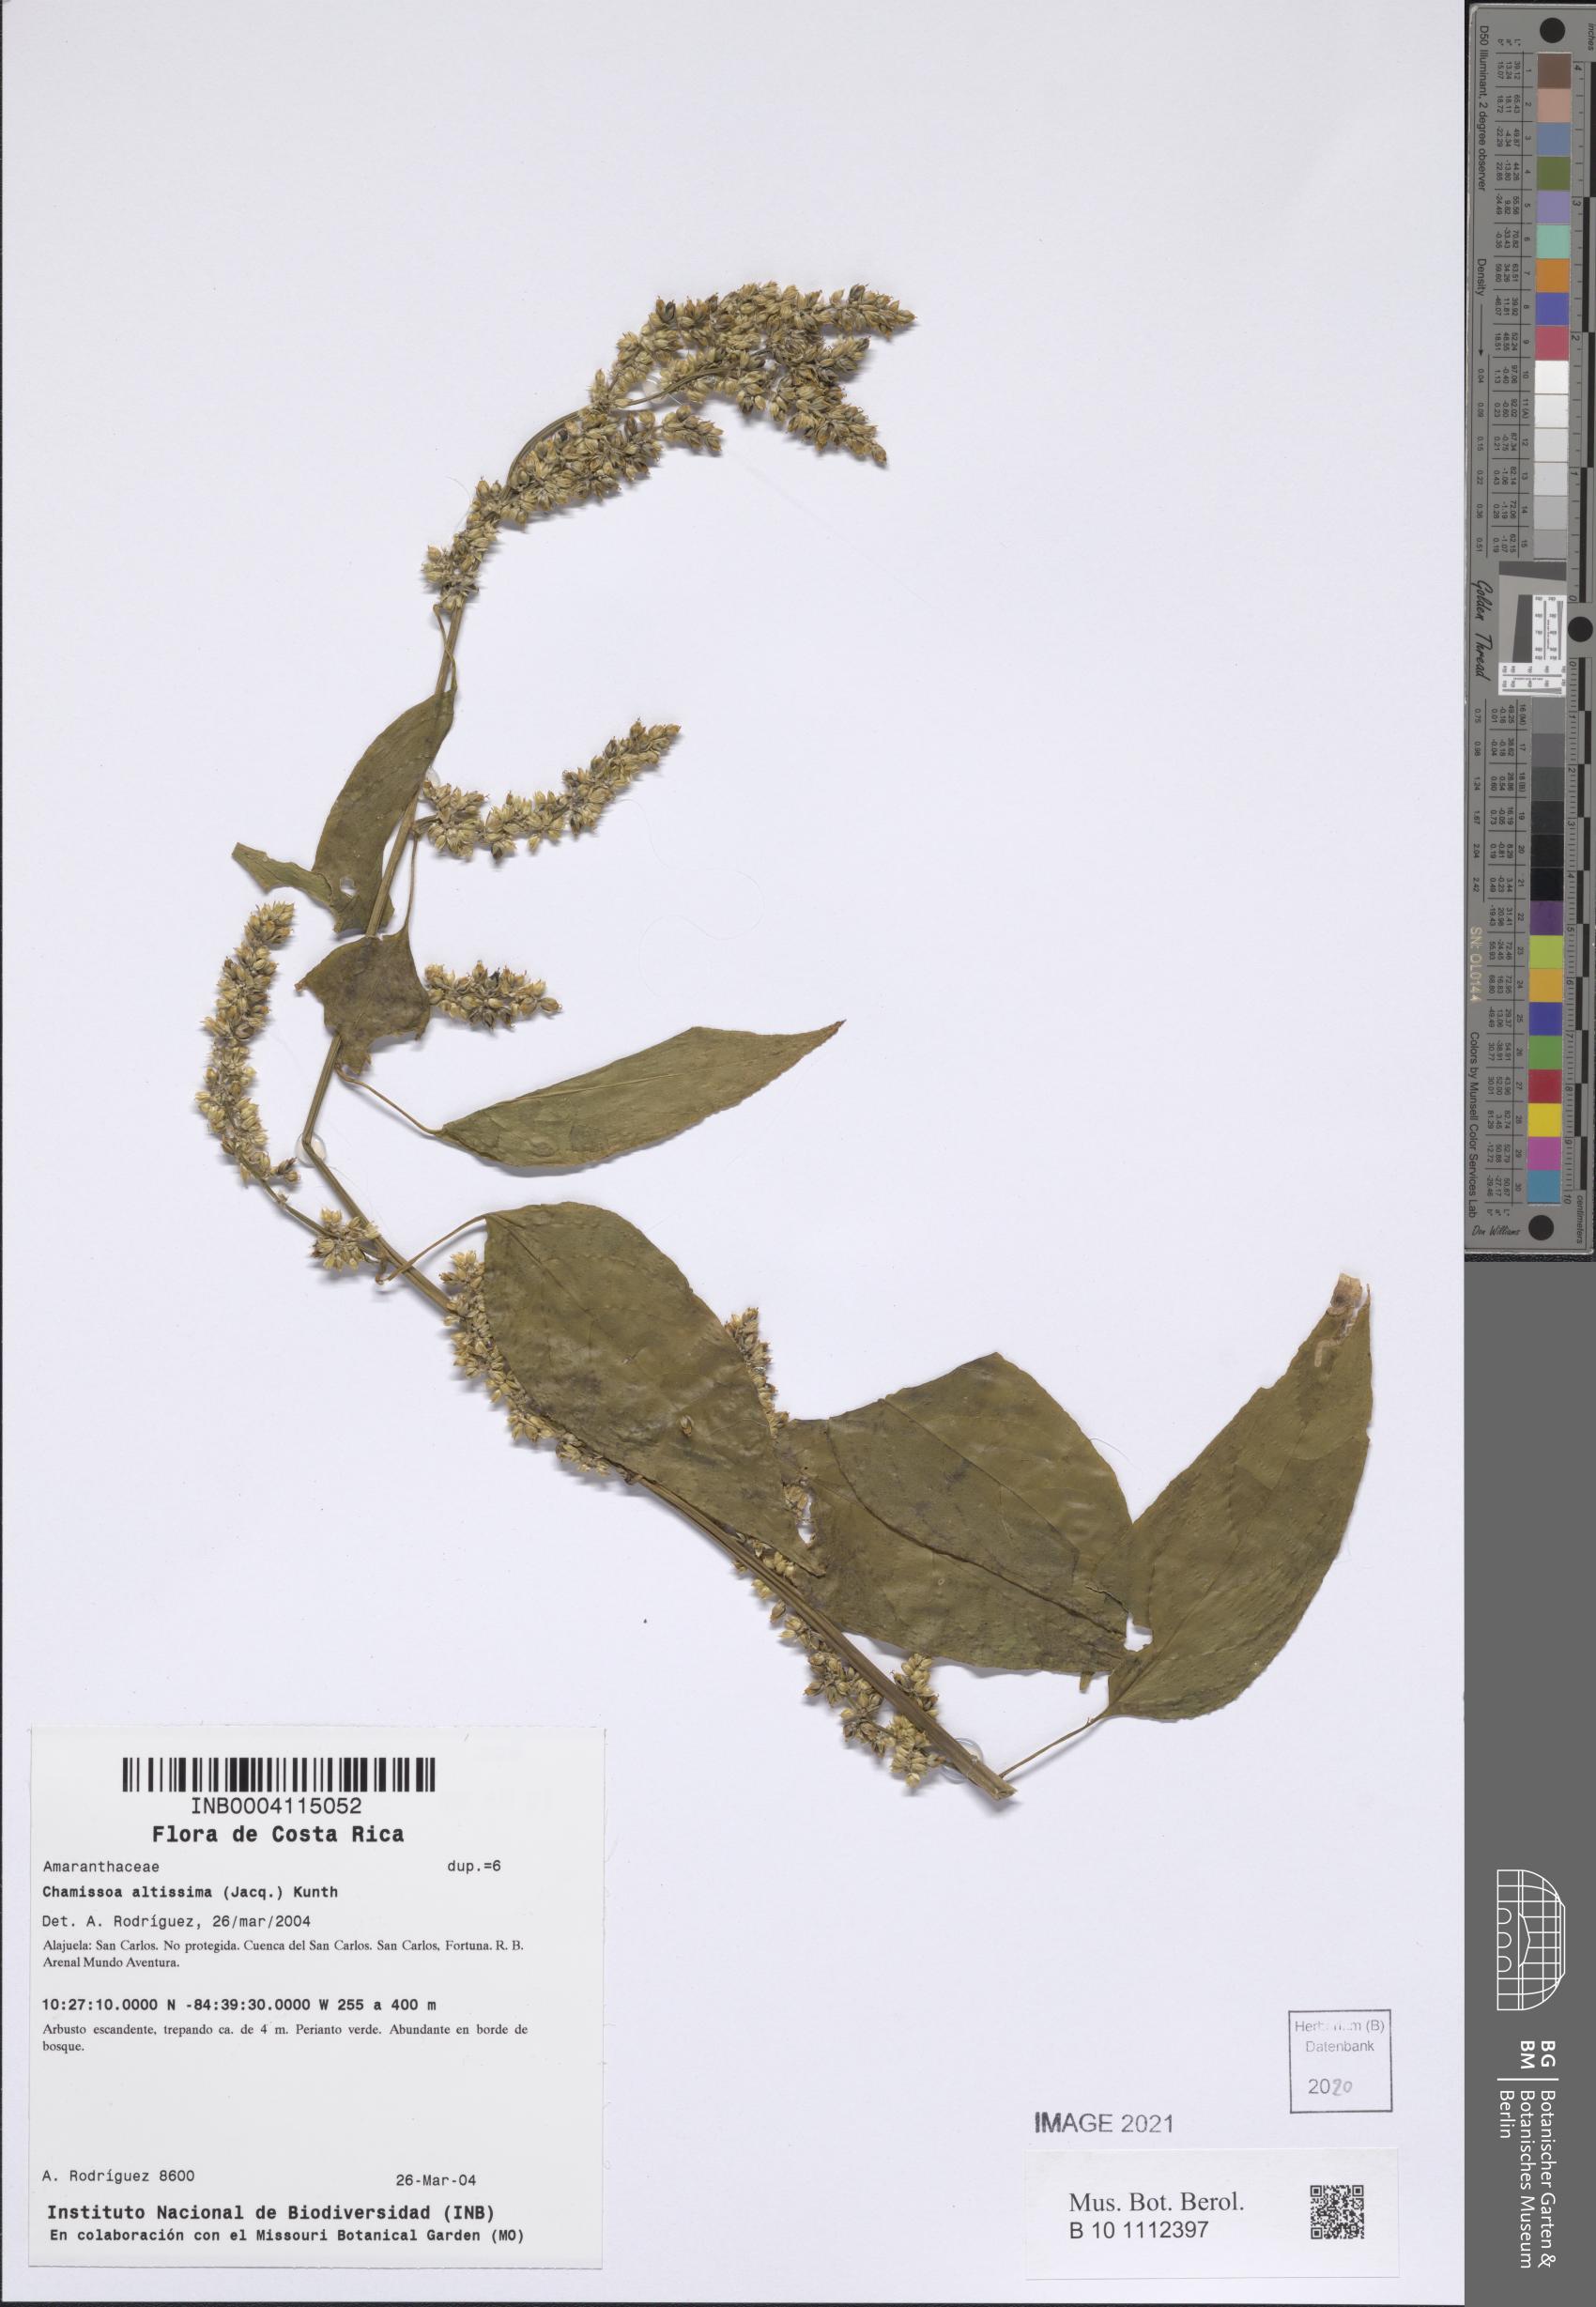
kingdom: Plantae
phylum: Tracheophyta
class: Magnoliopsida
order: Caryophyllales
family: Amaranthaceae
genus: Chamissoa
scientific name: Chamissoa altissima
